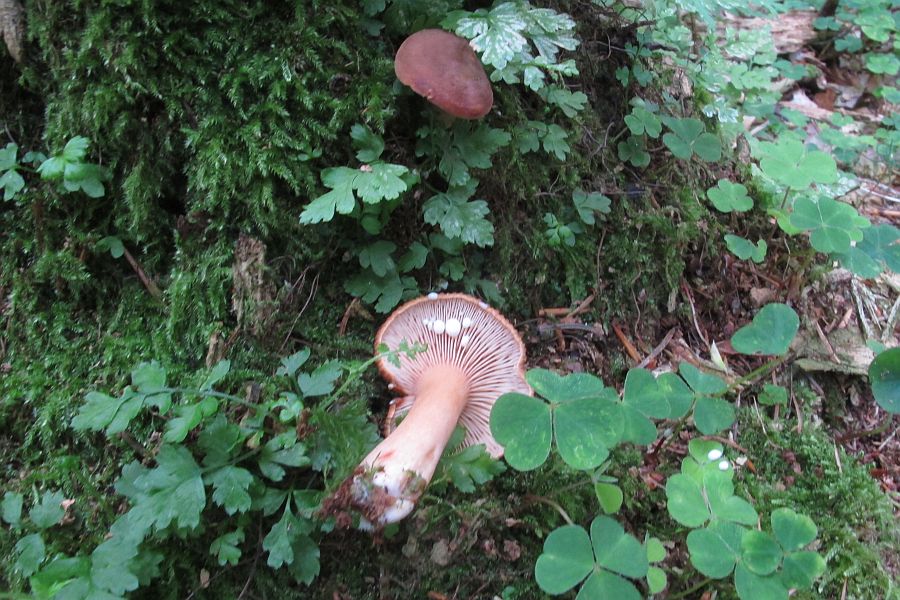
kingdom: Fungi
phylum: Basidiomycota
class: Agaricomycetes
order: Russulales
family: Russulaceae
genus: Lactarius
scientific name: Lactarius subdulcis
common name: sødlig mælkehat
